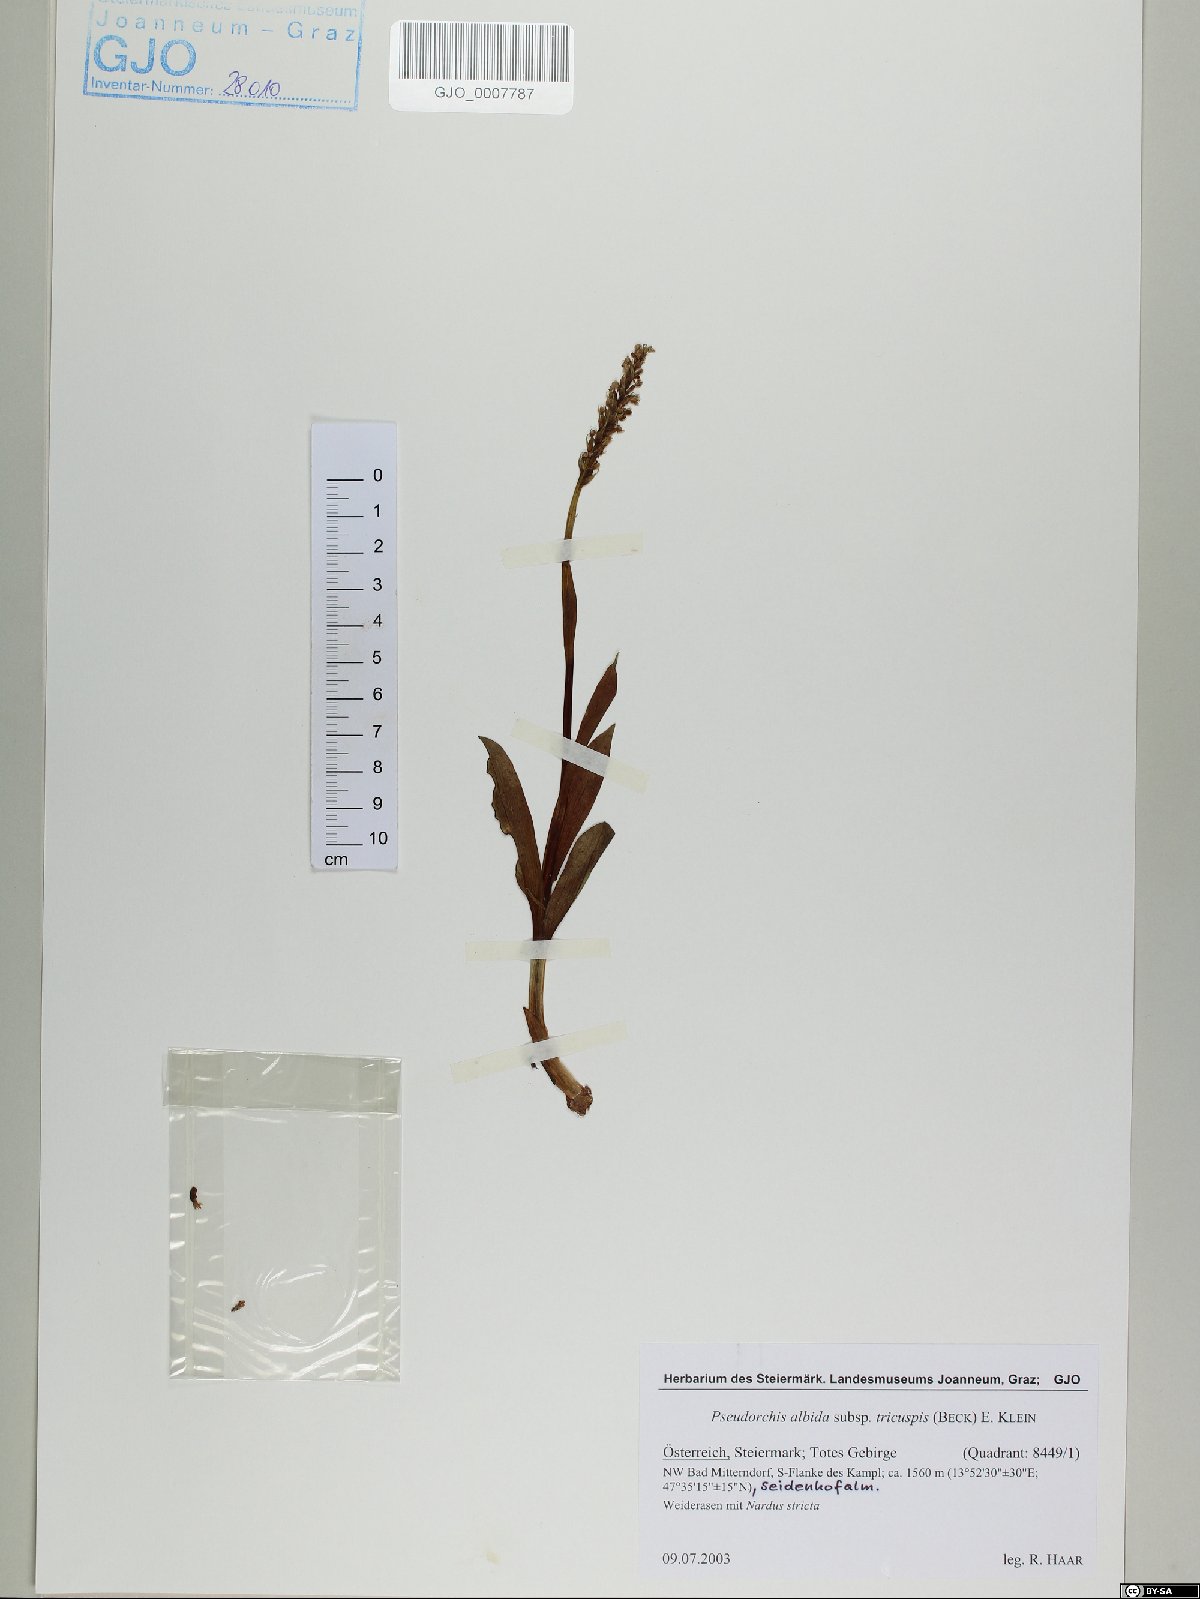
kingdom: Plantae
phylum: Tracheophyta
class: Liliopsida
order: Asparagales
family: Orchidaceae
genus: Pseudorchis
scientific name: Pseudorchis albida
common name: Small-white orchid
